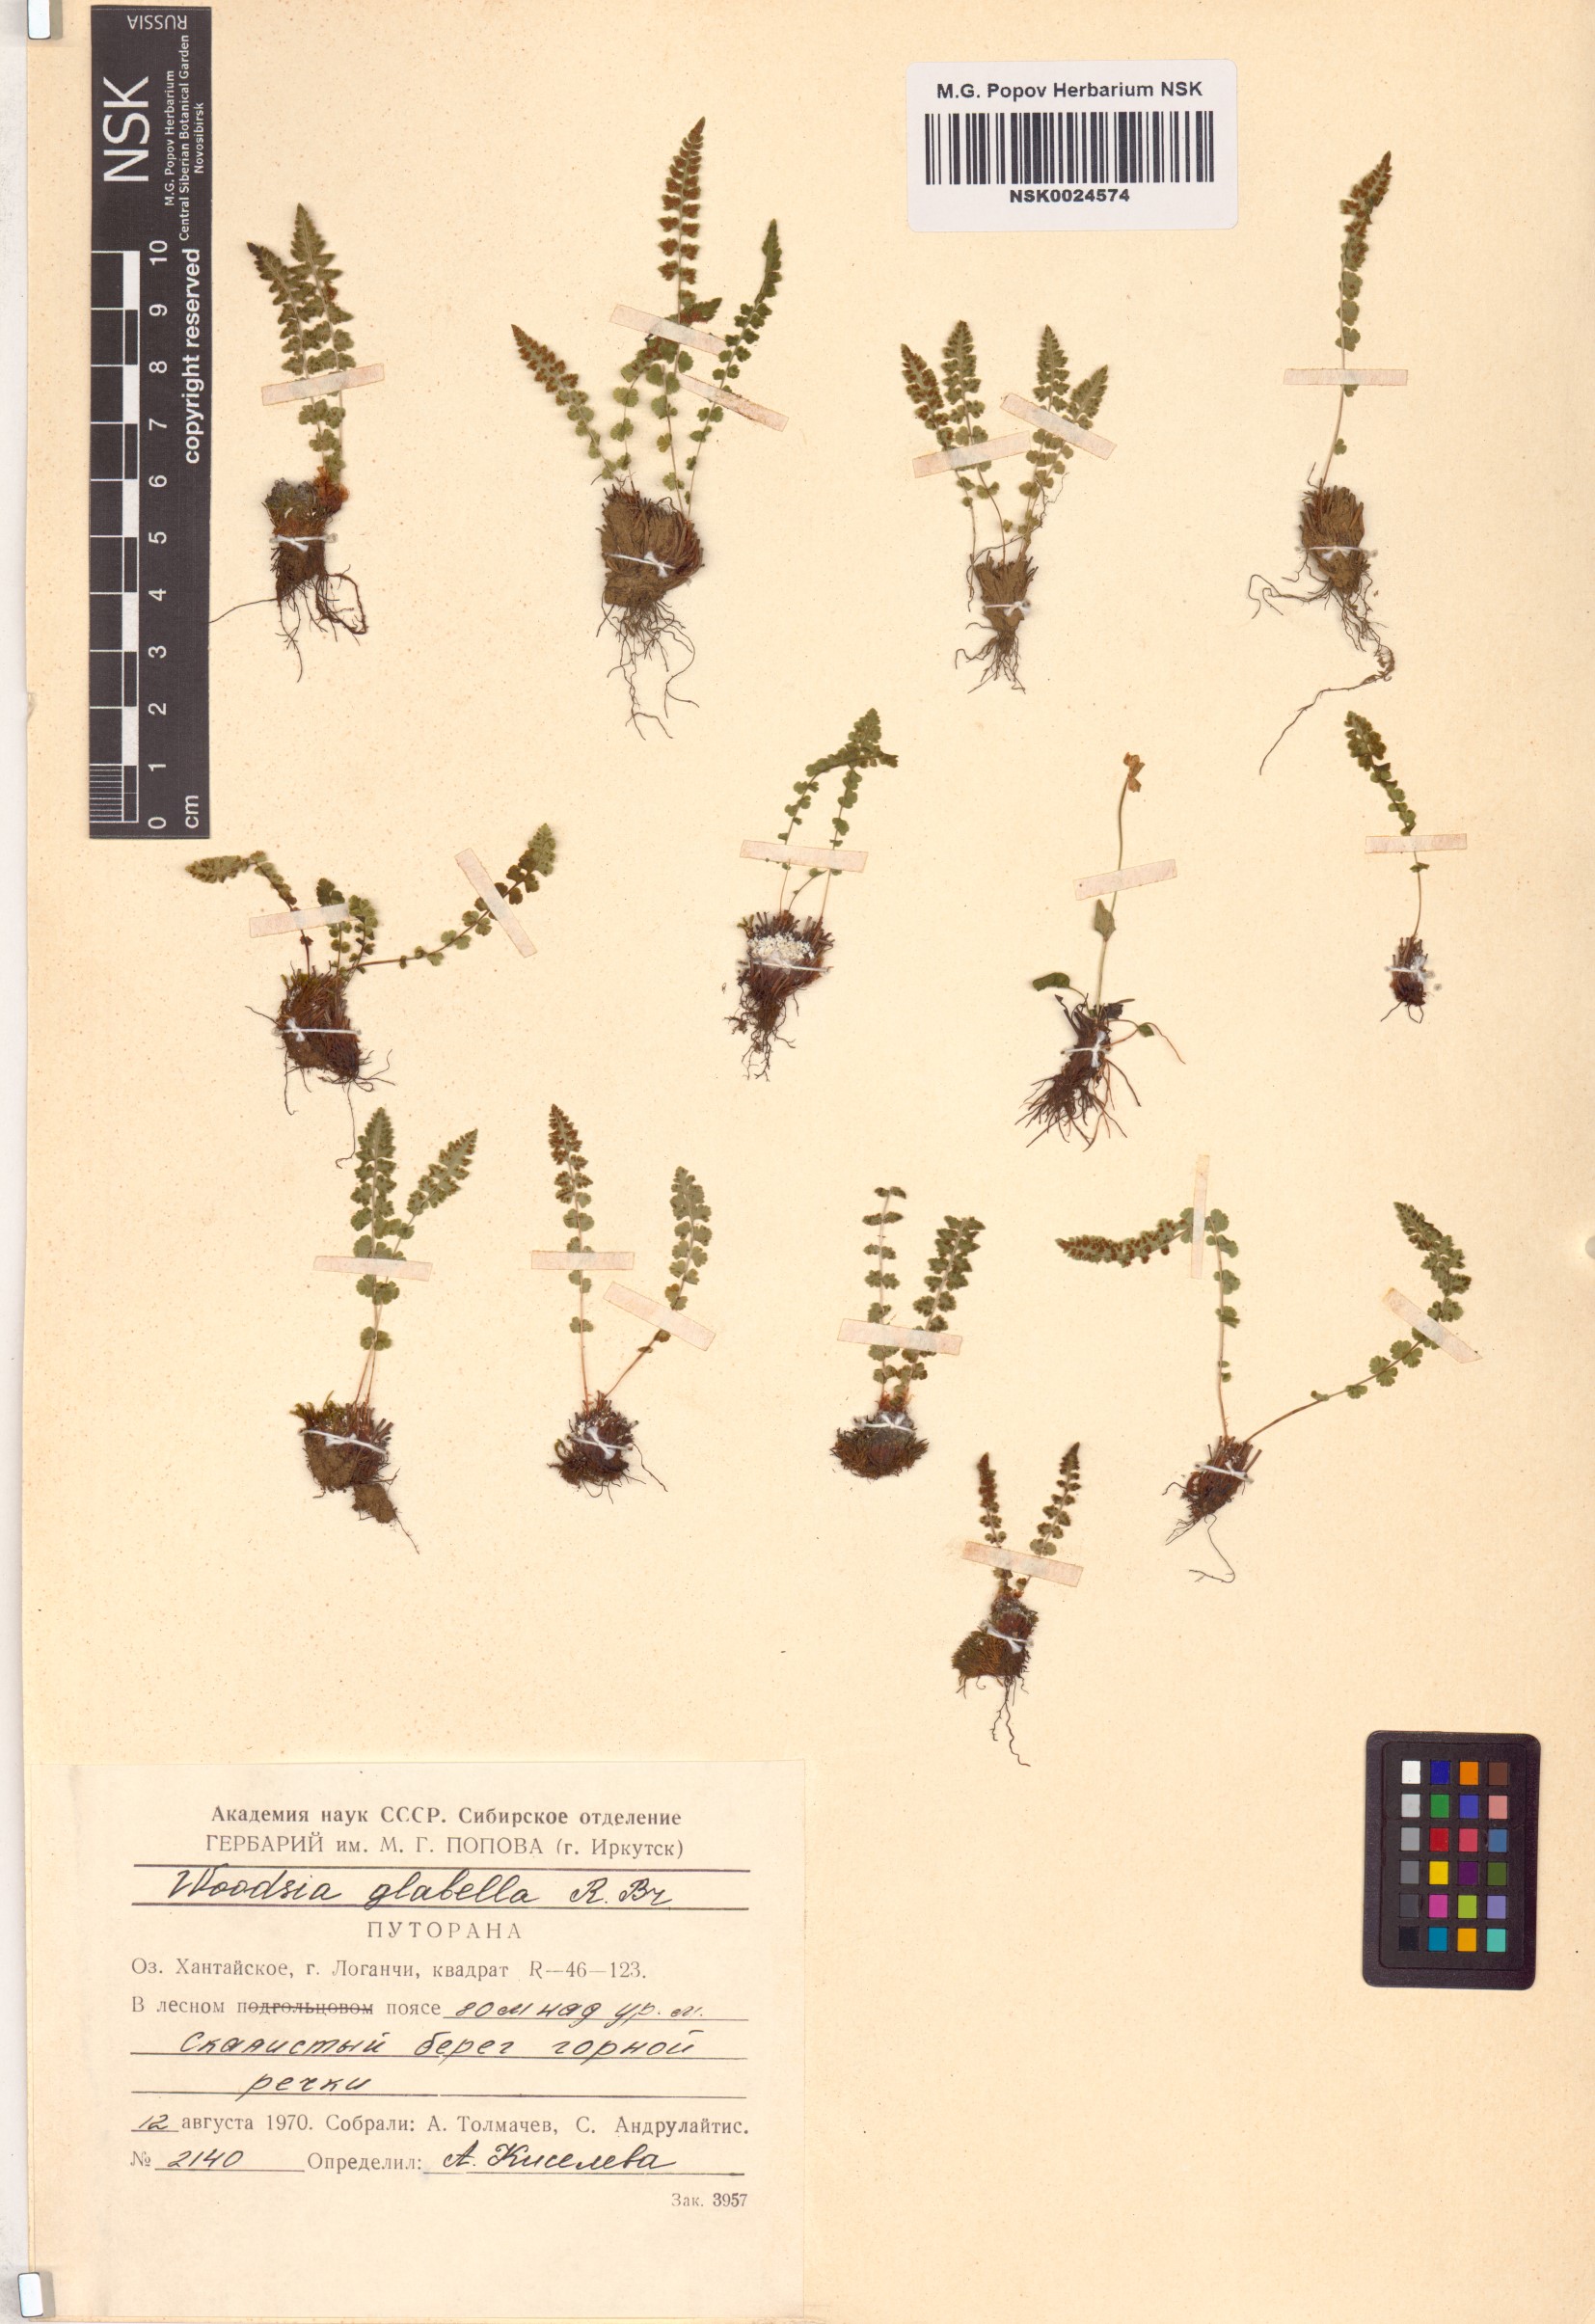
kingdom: Plantae
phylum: Tracheophyta
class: Polypodiopsida
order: Polypodiales
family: Woodsiaceae
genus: Woodsia
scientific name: Woodsia glabella
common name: Smooth woodsia
